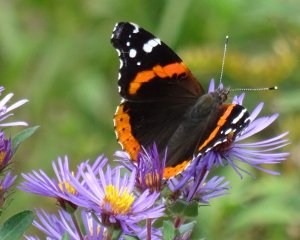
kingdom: Animalia
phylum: Arthropoda
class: Insecta
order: Lepidoptera
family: Nymphalidae
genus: Vanessa
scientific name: Vanessa atalanta
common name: Red Admiral
